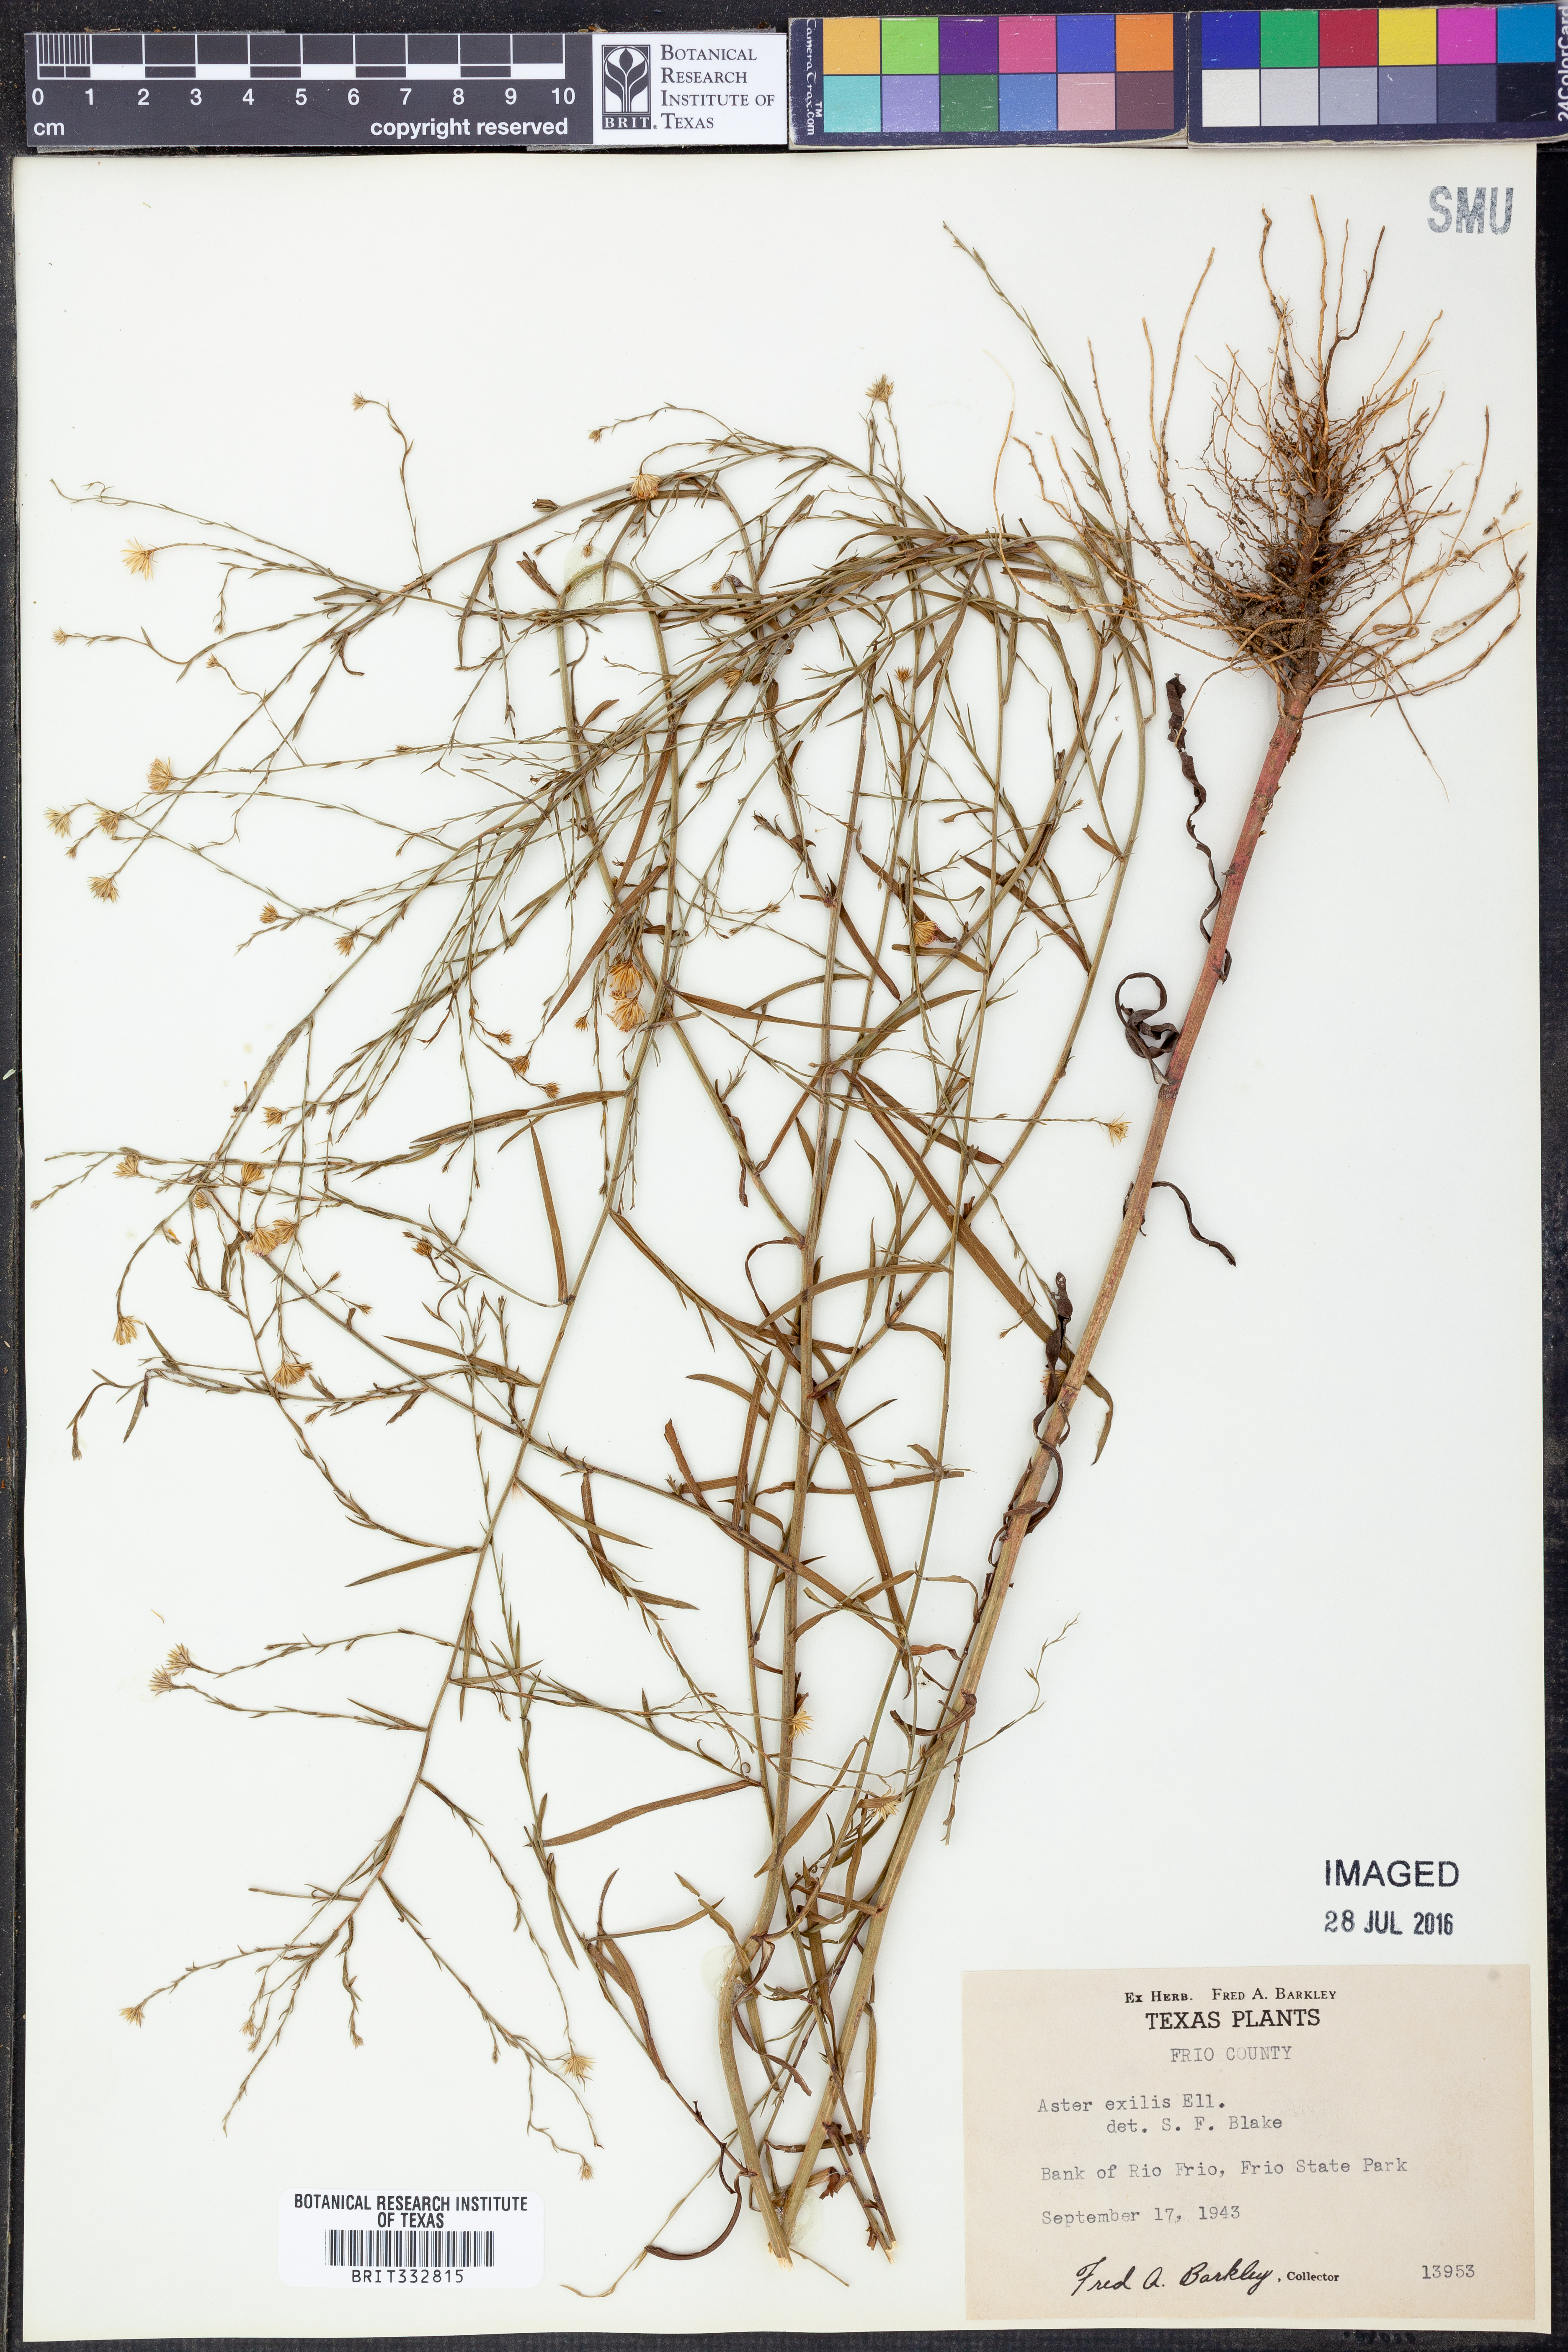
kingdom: Plantae
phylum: Tracheophyta
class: Magnoliopsida
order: Asterales
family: Asteraceae
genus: Symphyotrichum
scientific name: Symphyotrichum expansum
